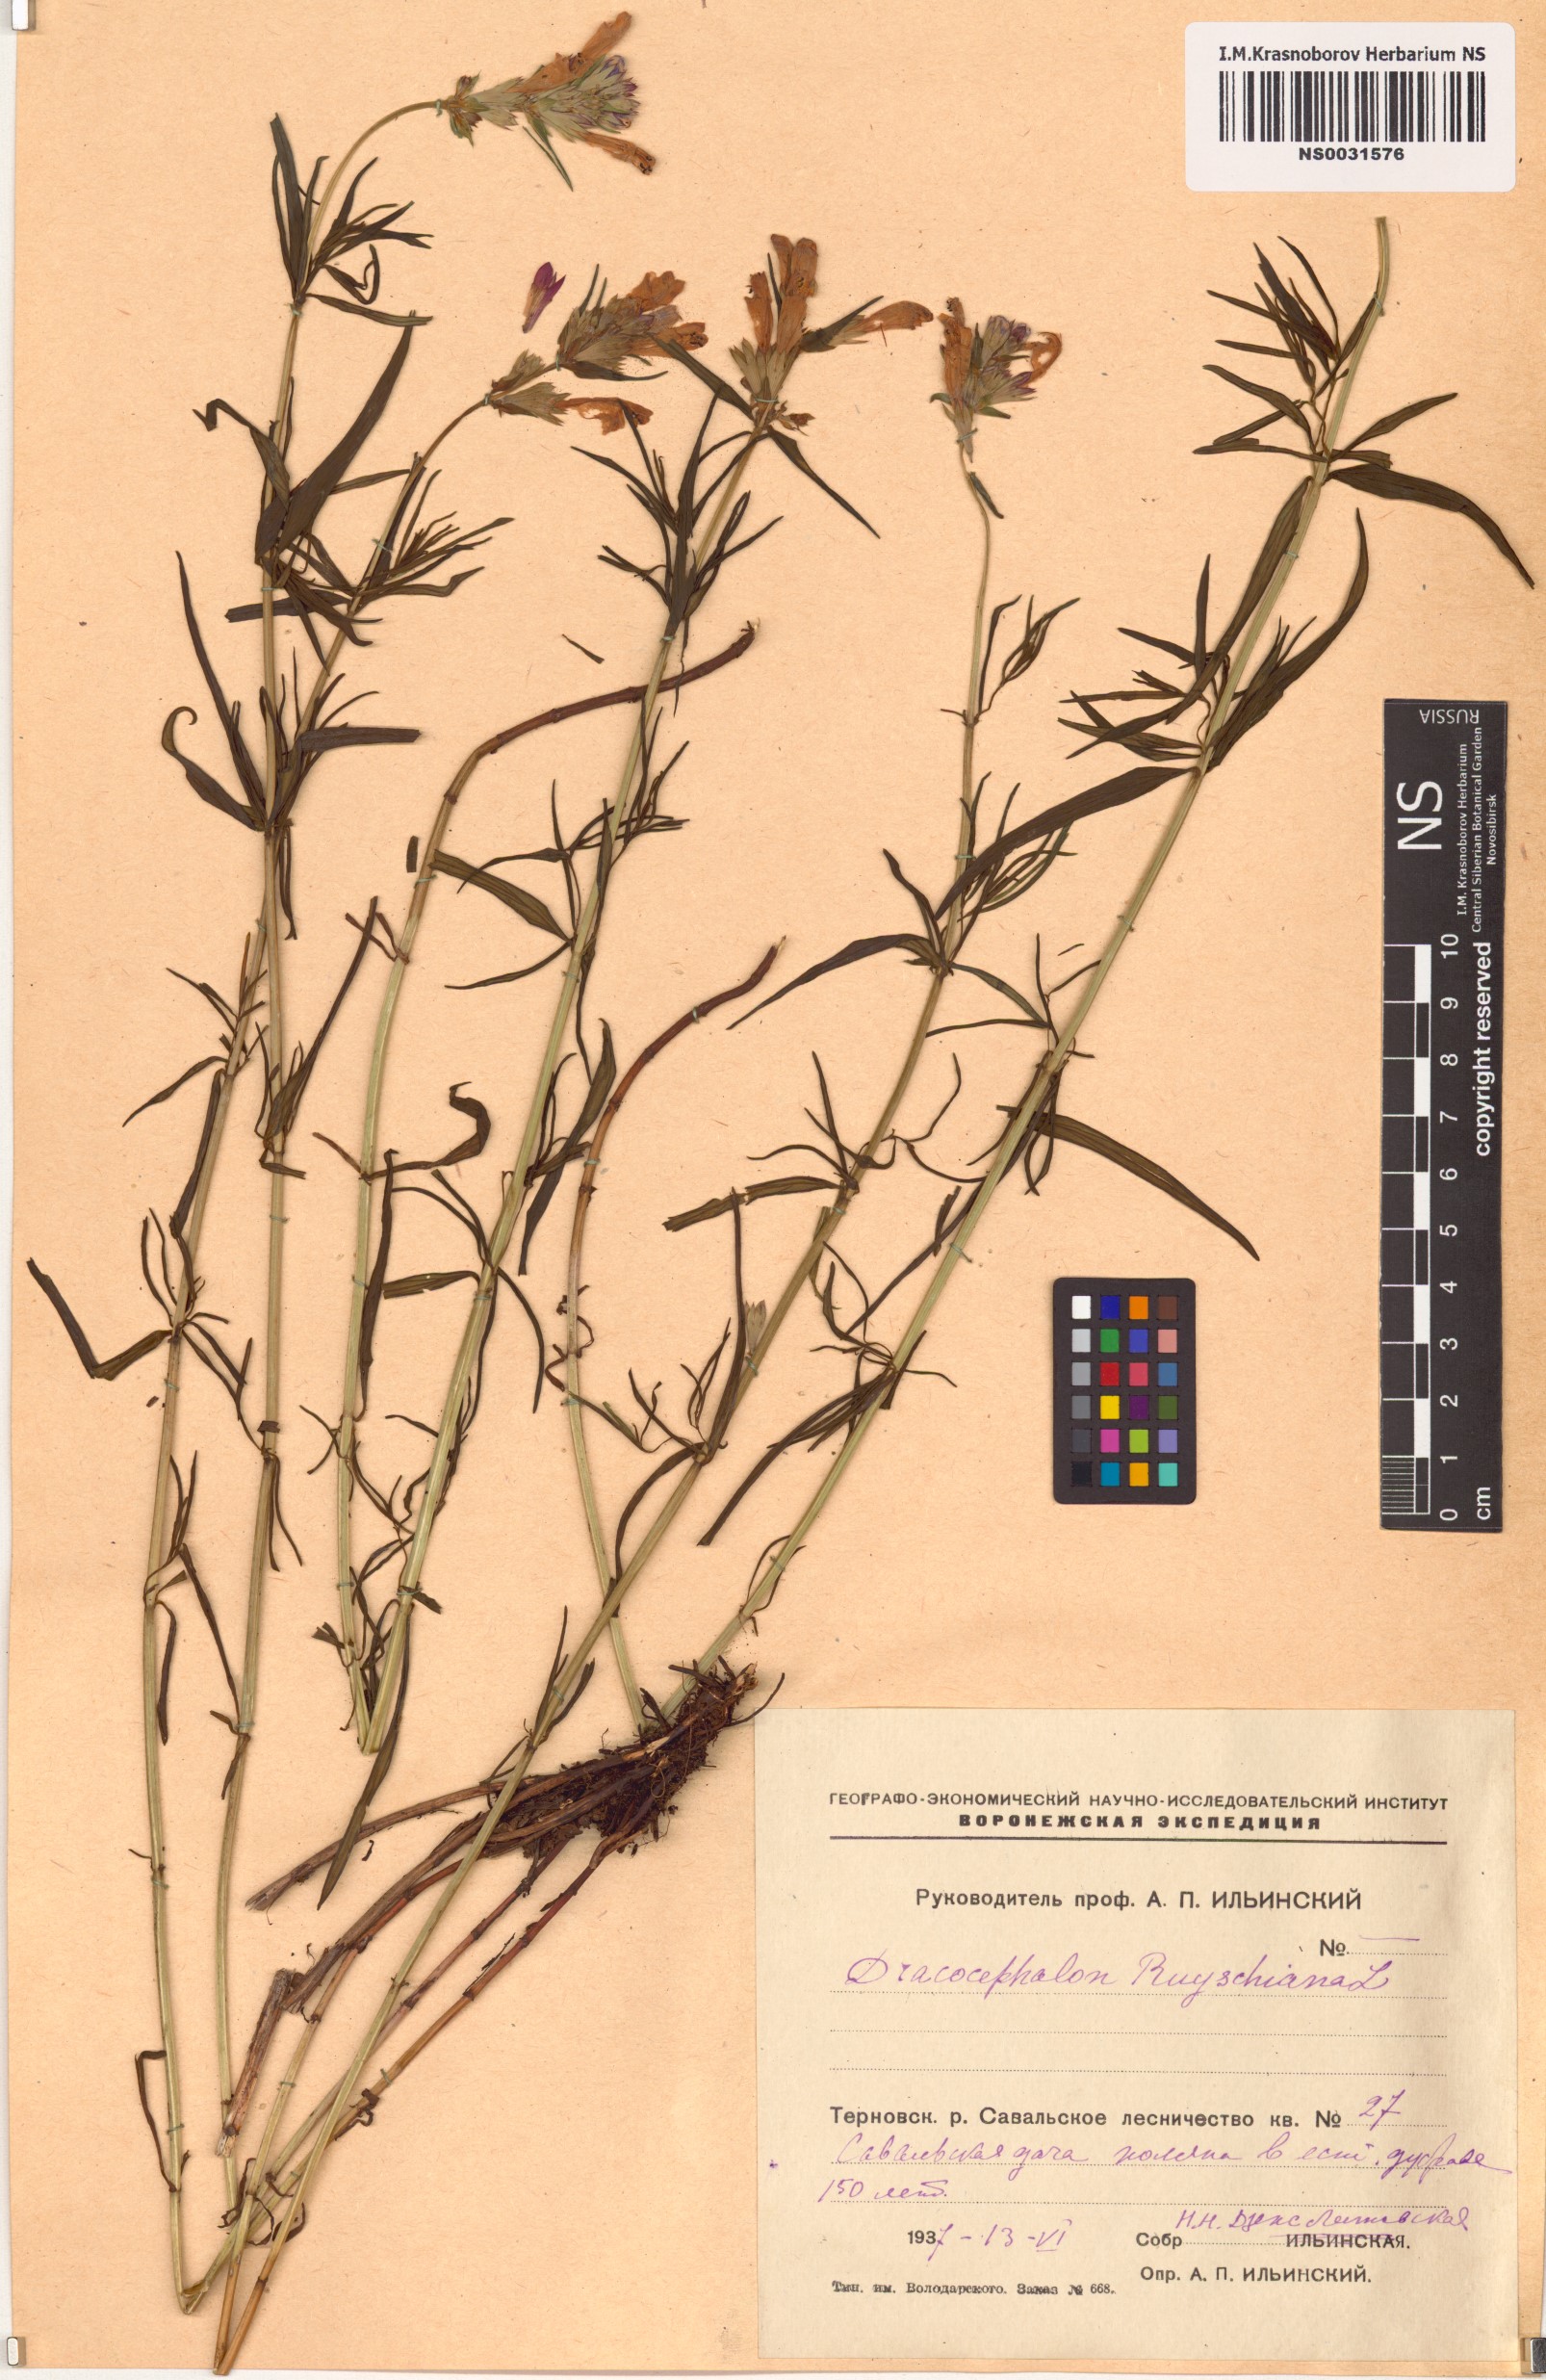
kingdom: Plantae
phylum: Tracheophyta
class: Magnoliopsida
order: Lamiales
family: Lamiaceae
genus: Dracocephalum
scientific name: Dracocephalum ruyschiana
